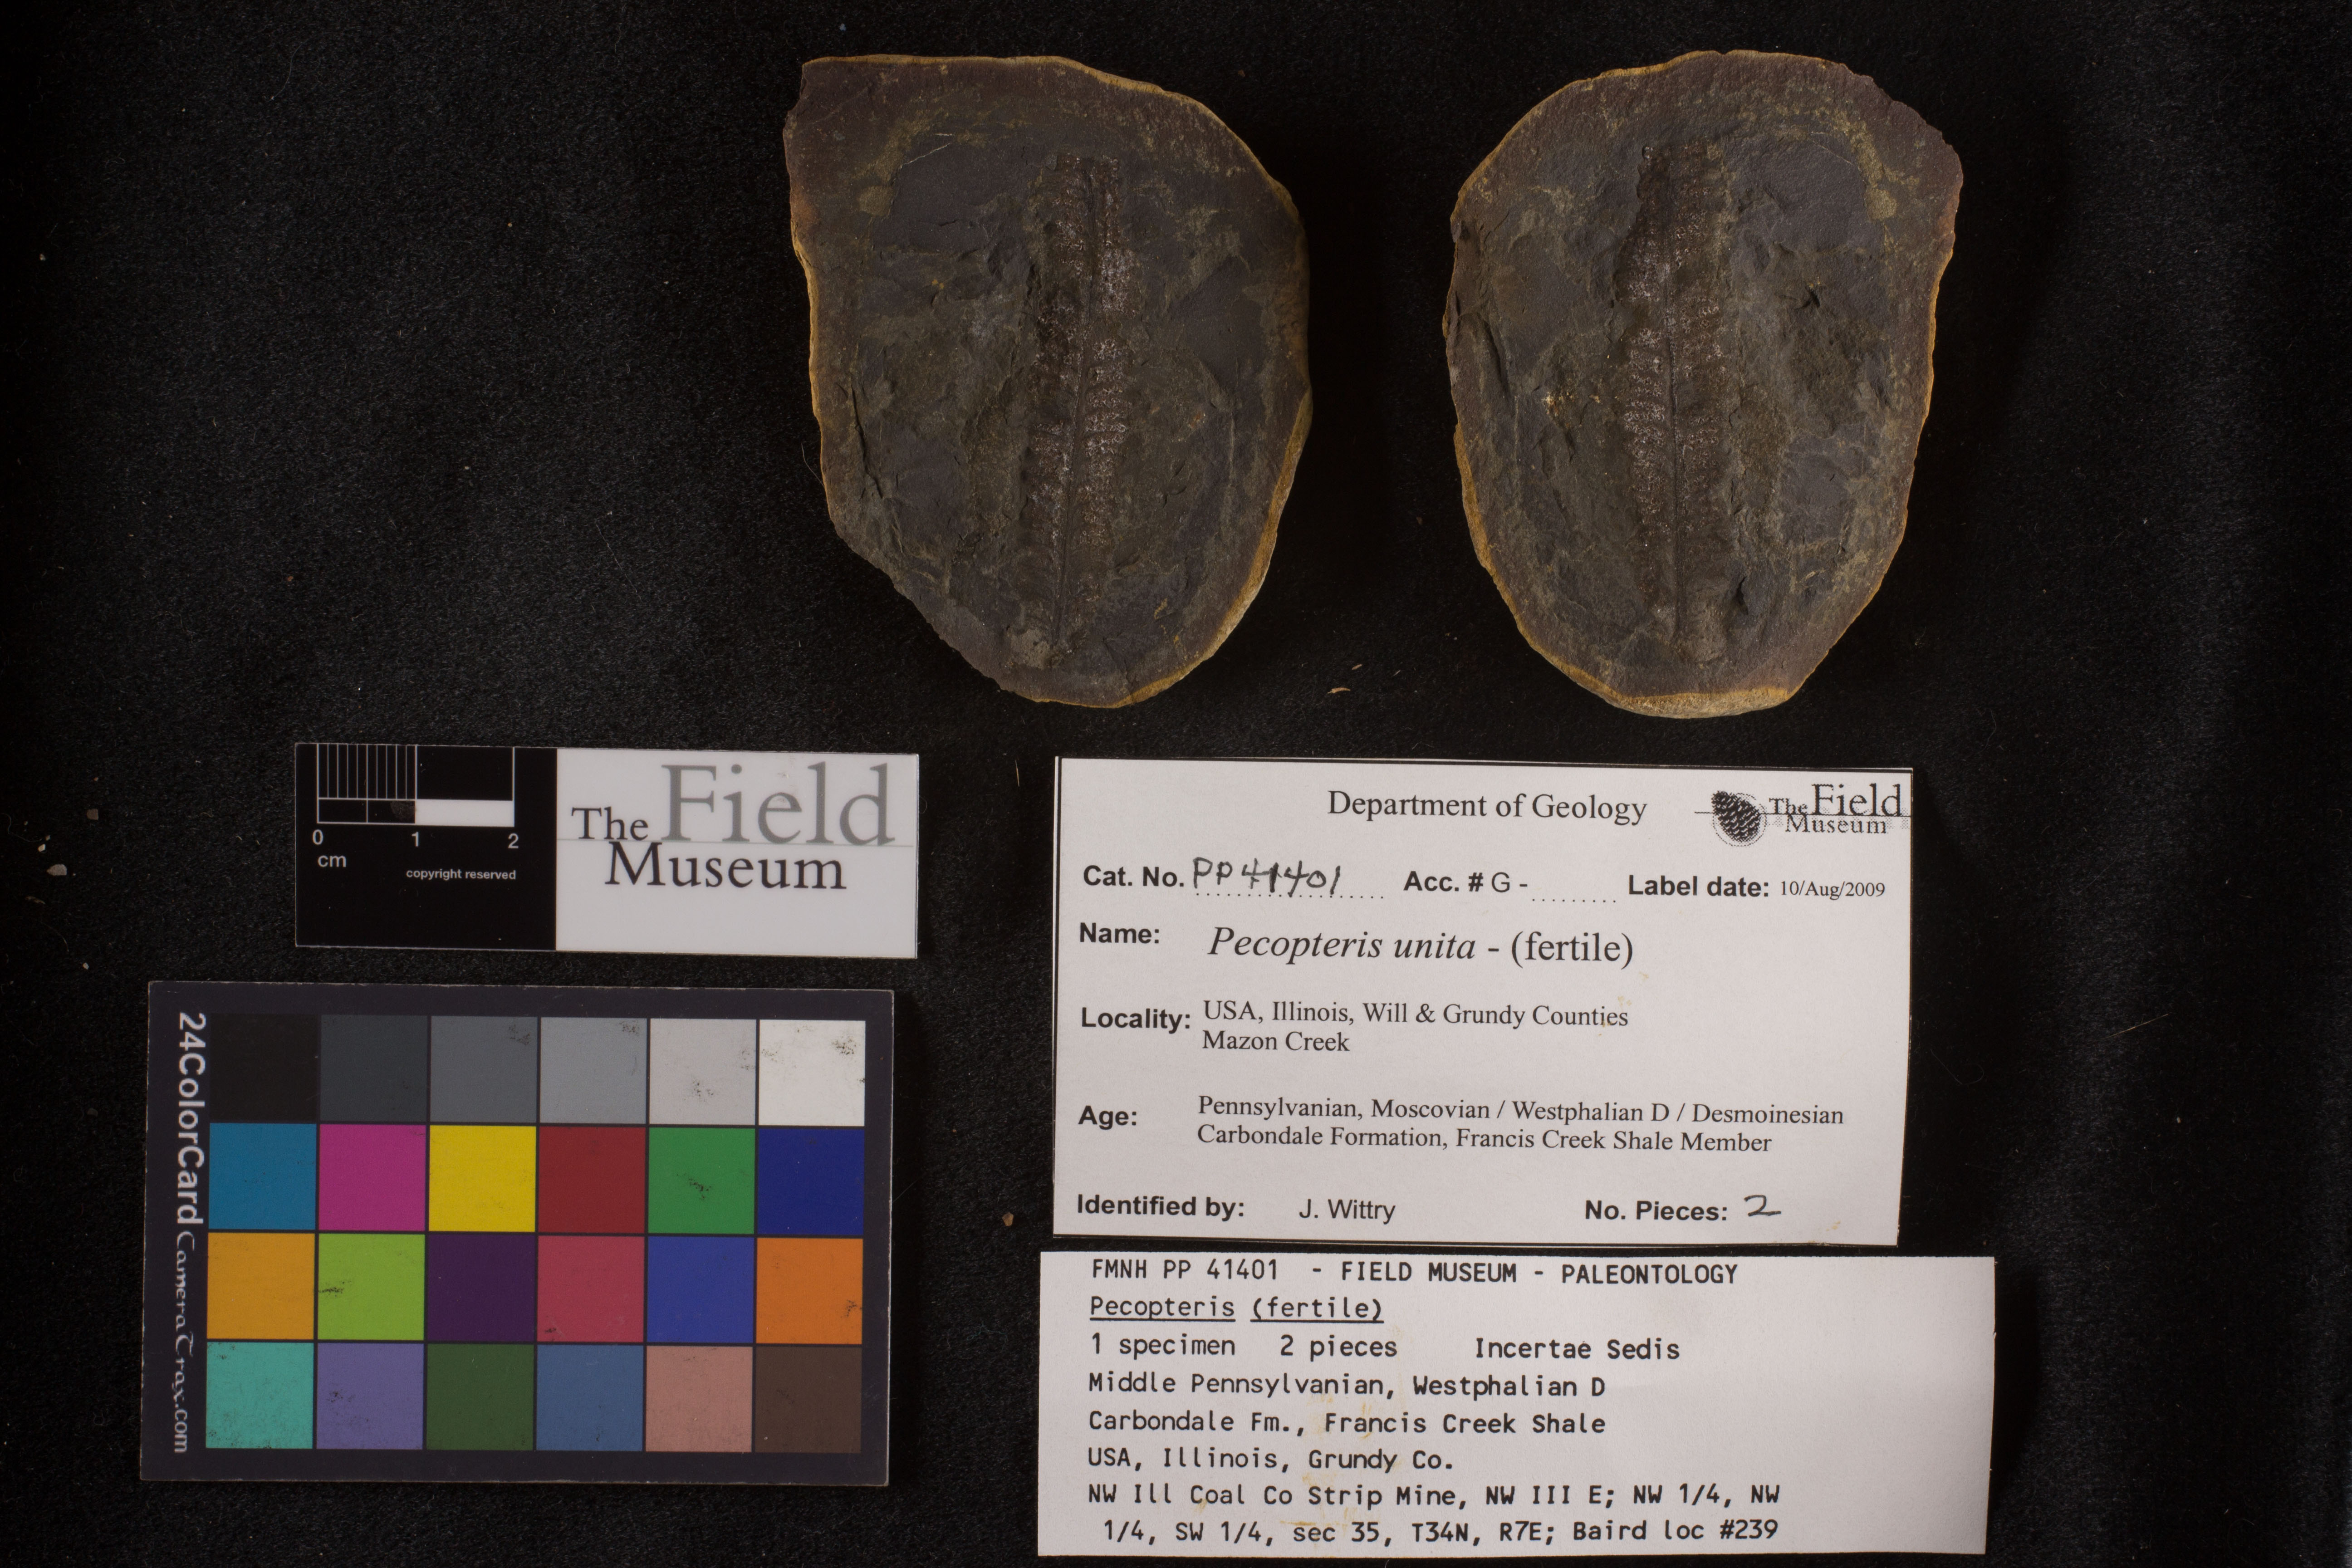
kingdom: Plantae
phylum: Tracheophyta
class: Polypodiopsida
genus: Diplazites
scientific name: Diplazites
